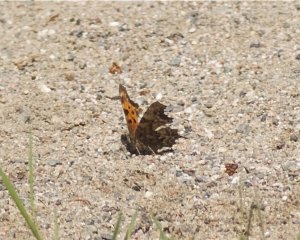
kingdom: Animalia
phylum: Arthropoda
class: Insecta
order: Lepidoptera
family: Nymphalidae
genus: Polygonia
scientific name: Polygonia faunus
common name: Green Comma
